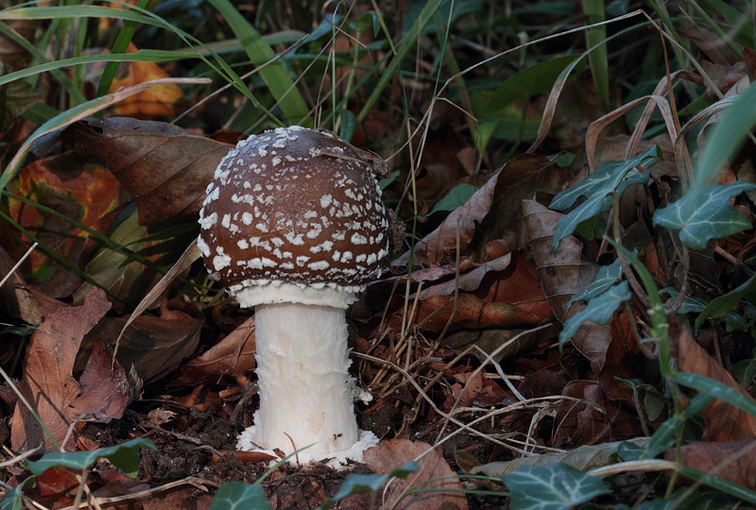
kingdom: Fungi
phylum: Basidiomycota
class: Agaricomycetes
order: Agaricales
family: Amanitaceae
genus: Amanita
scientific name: Amanita pantherina
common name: panter-fluesvamp
